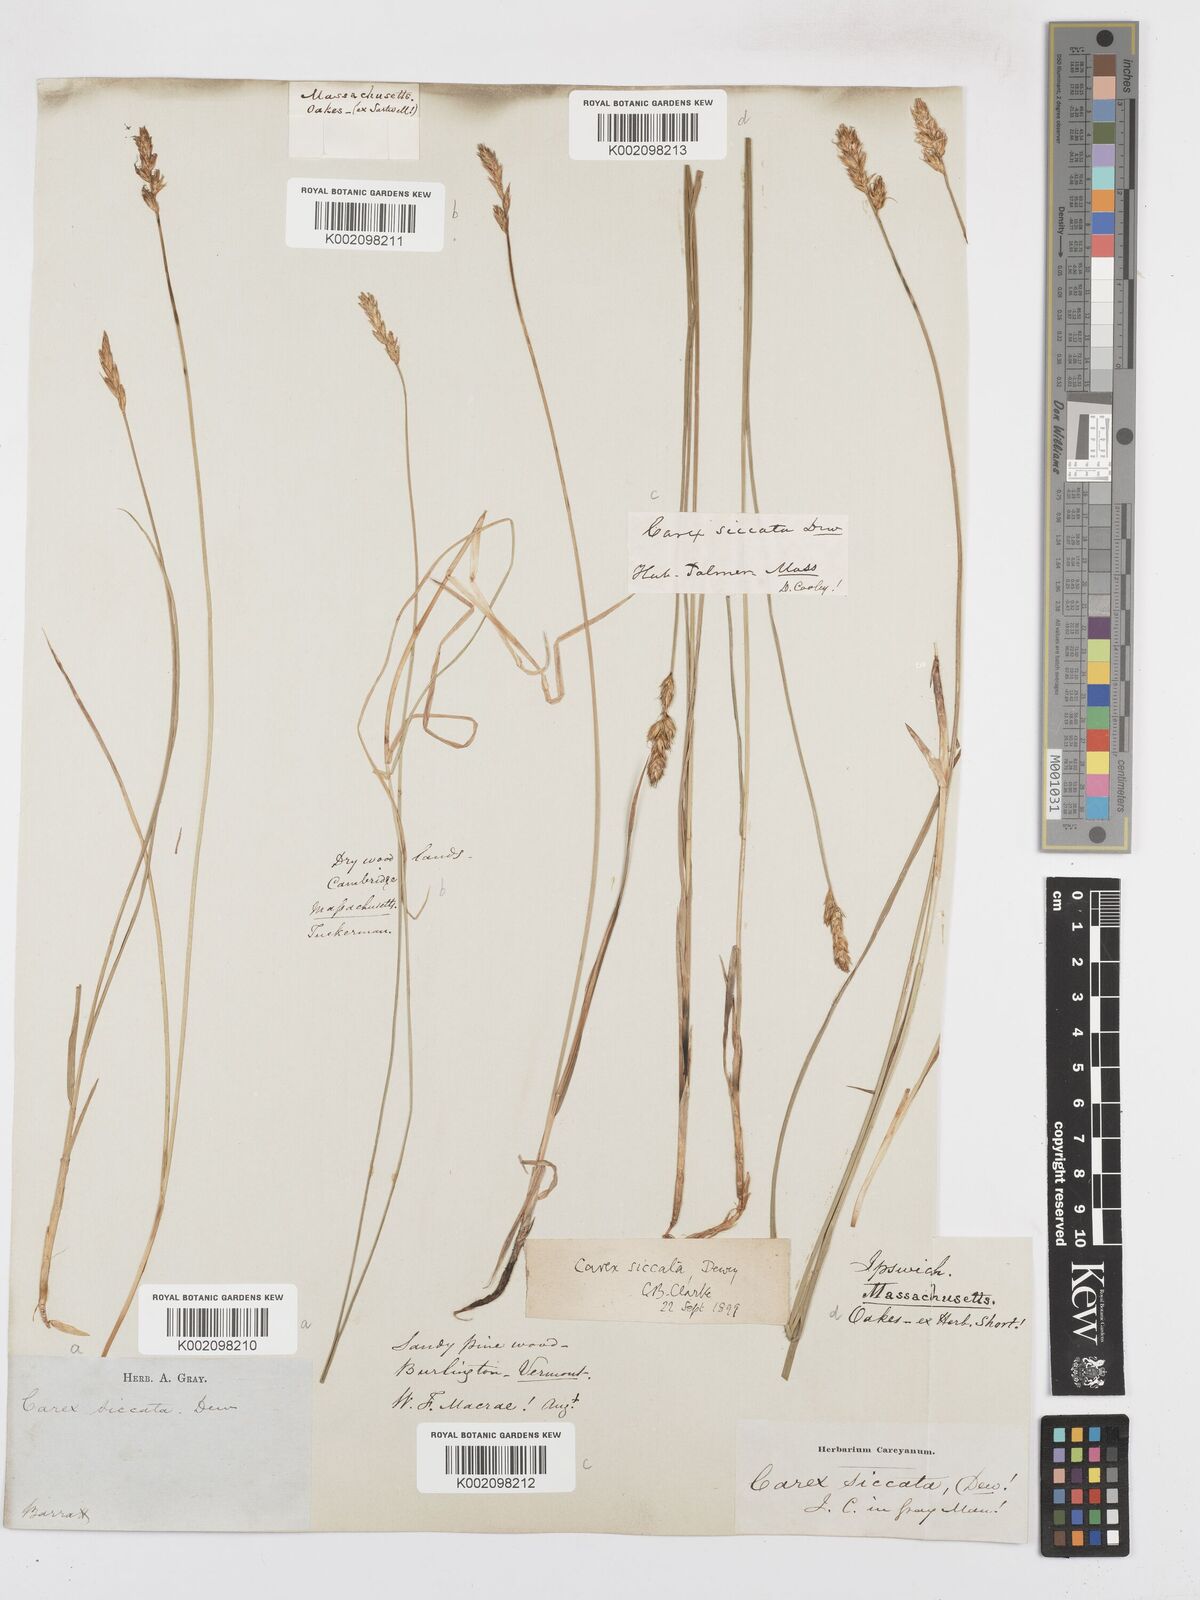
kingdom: Plantae
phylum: Tracheophyta
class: Liliopsida
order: Poales
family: Cyperaceae
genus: Carex
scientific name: Carex foenea
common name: Bronze sedge
